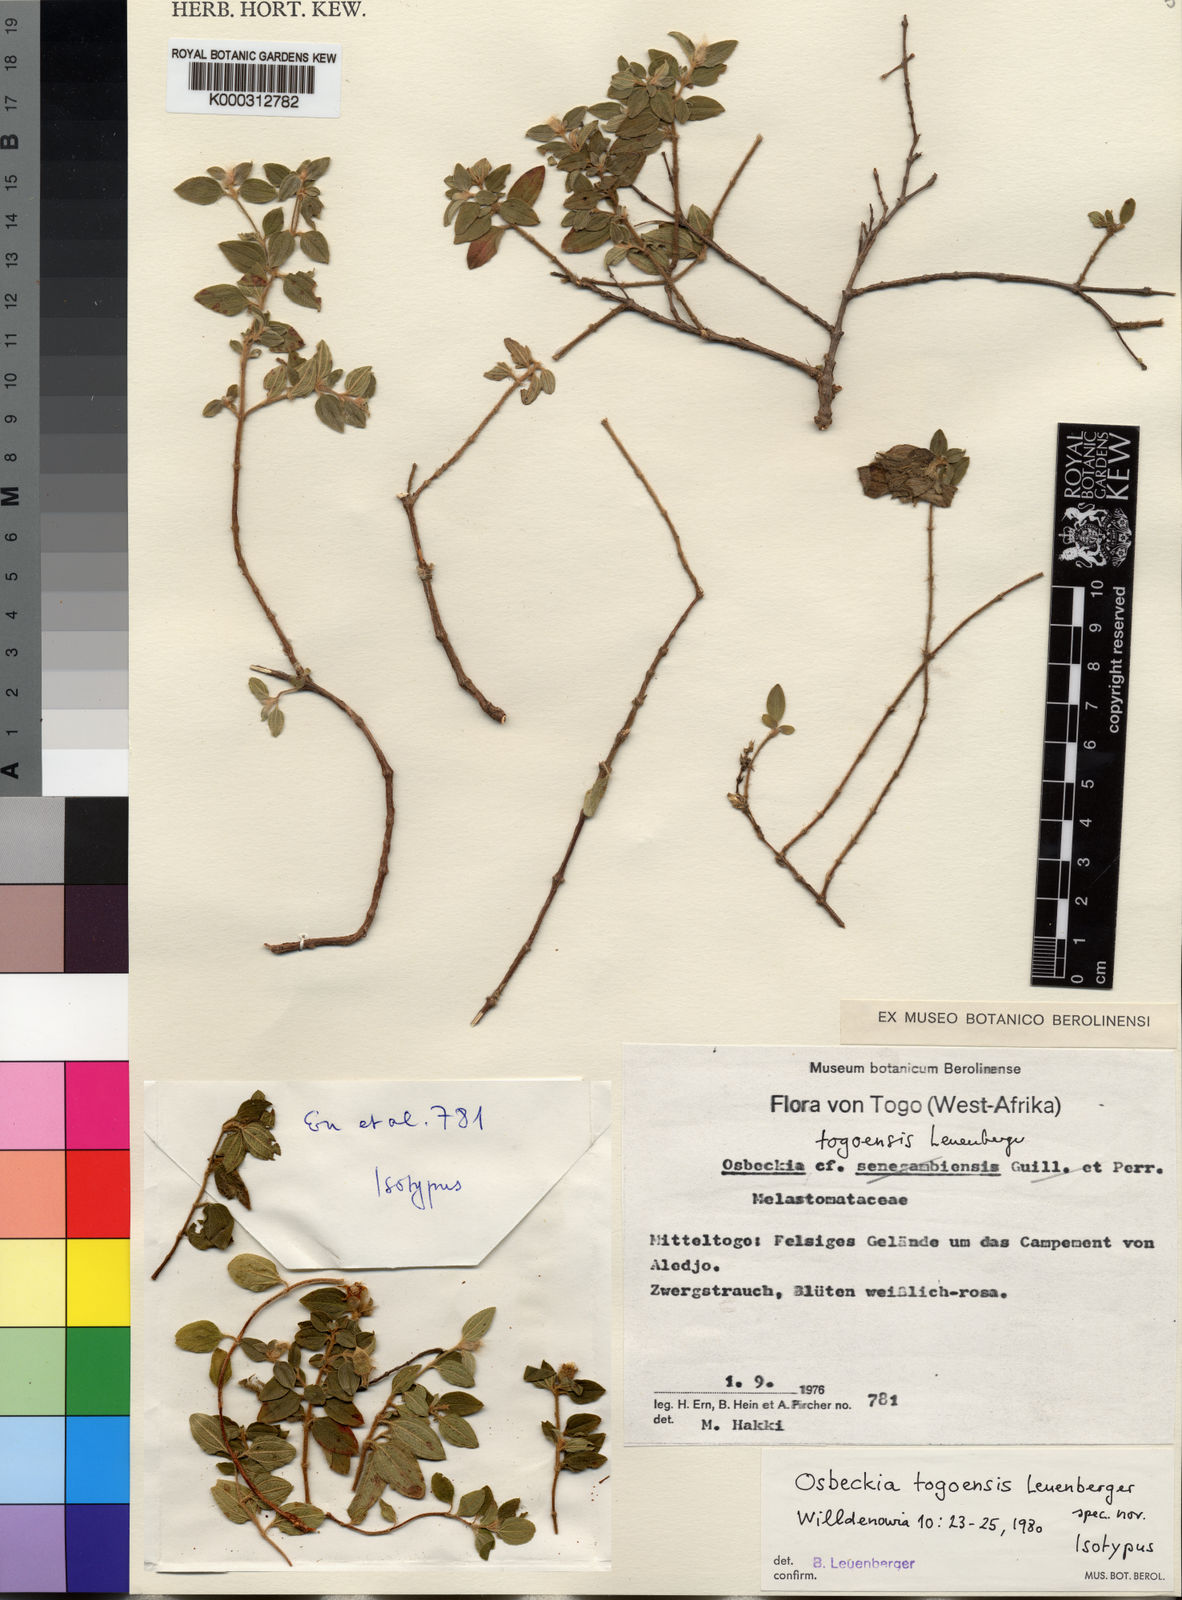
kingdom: Plantae
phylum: Tracheophyta
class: Magnoliopsida
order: Myrtales
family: Melastomataceae
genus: Nerophila
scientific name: Nerophila togoensis
